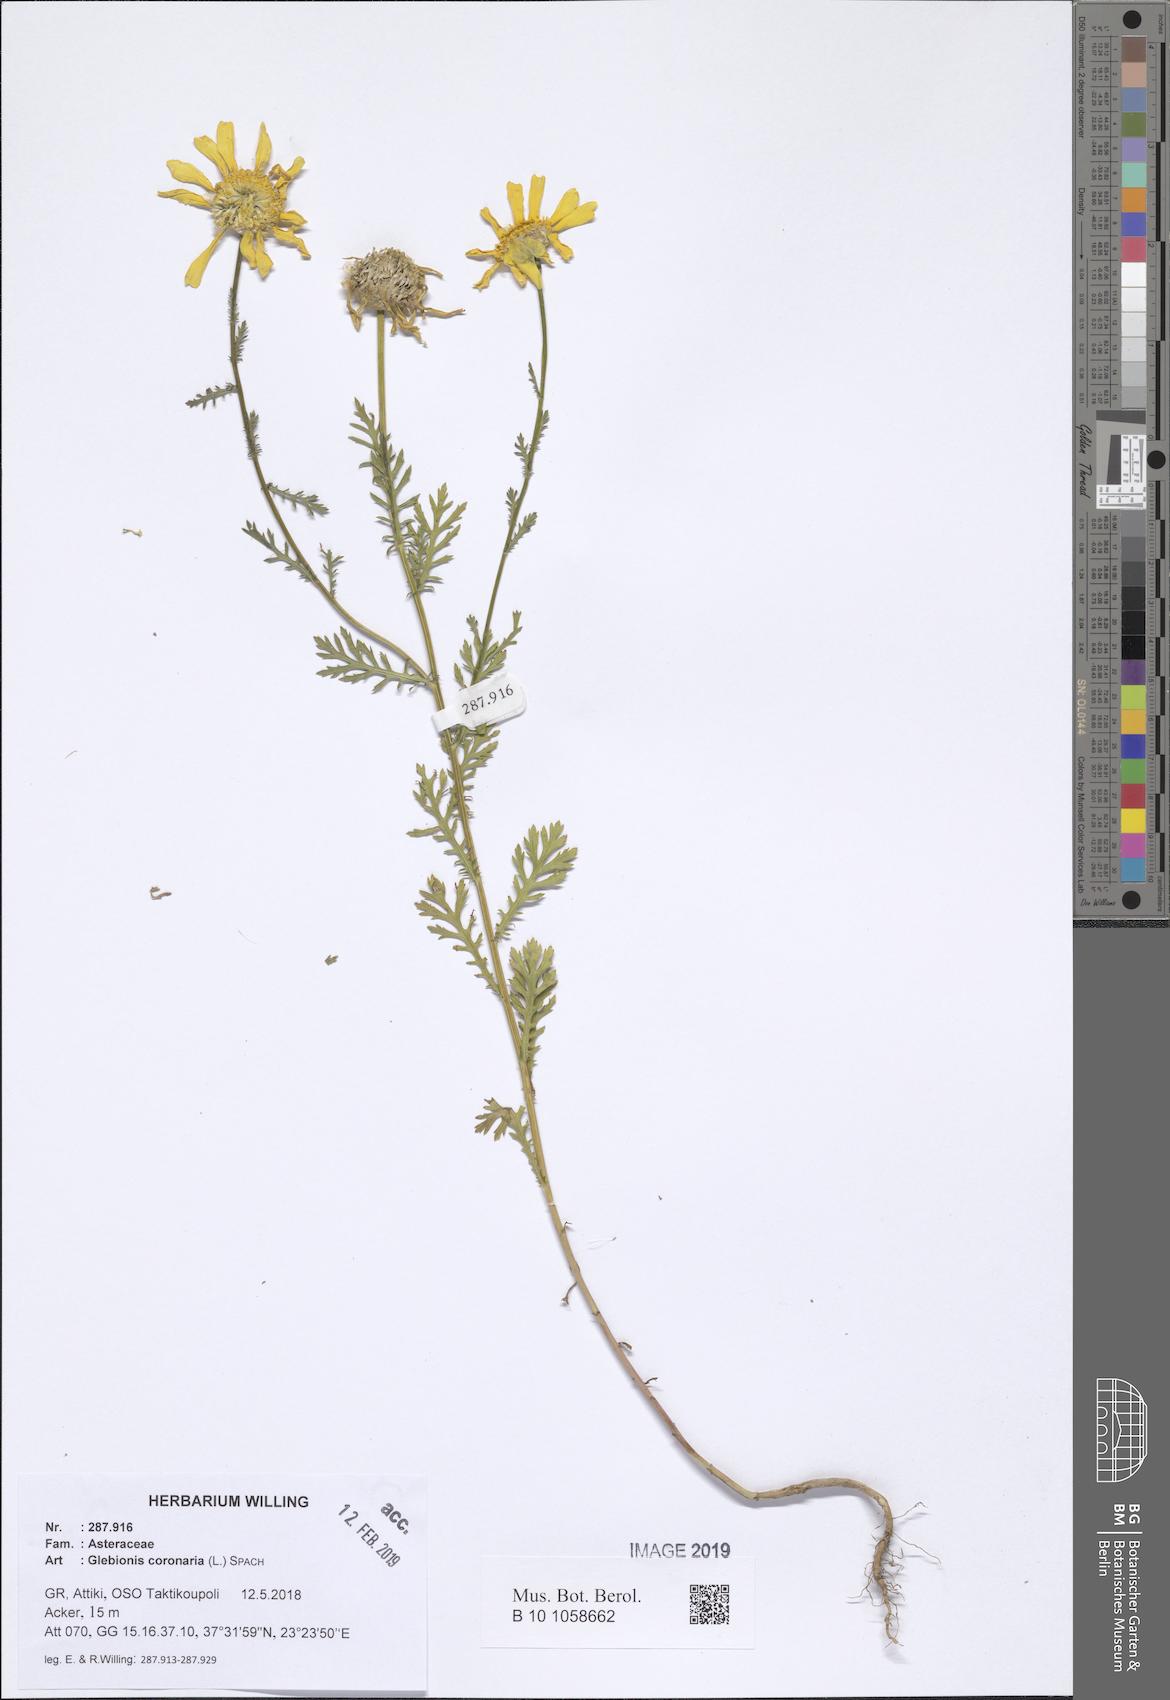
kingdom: Plantae
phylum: Tracheophyta
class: Magnoliopsida
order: Asterales
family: Asteraceae
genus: Glebionis
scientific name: Glebionis coronaria
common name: Crowndaisy
